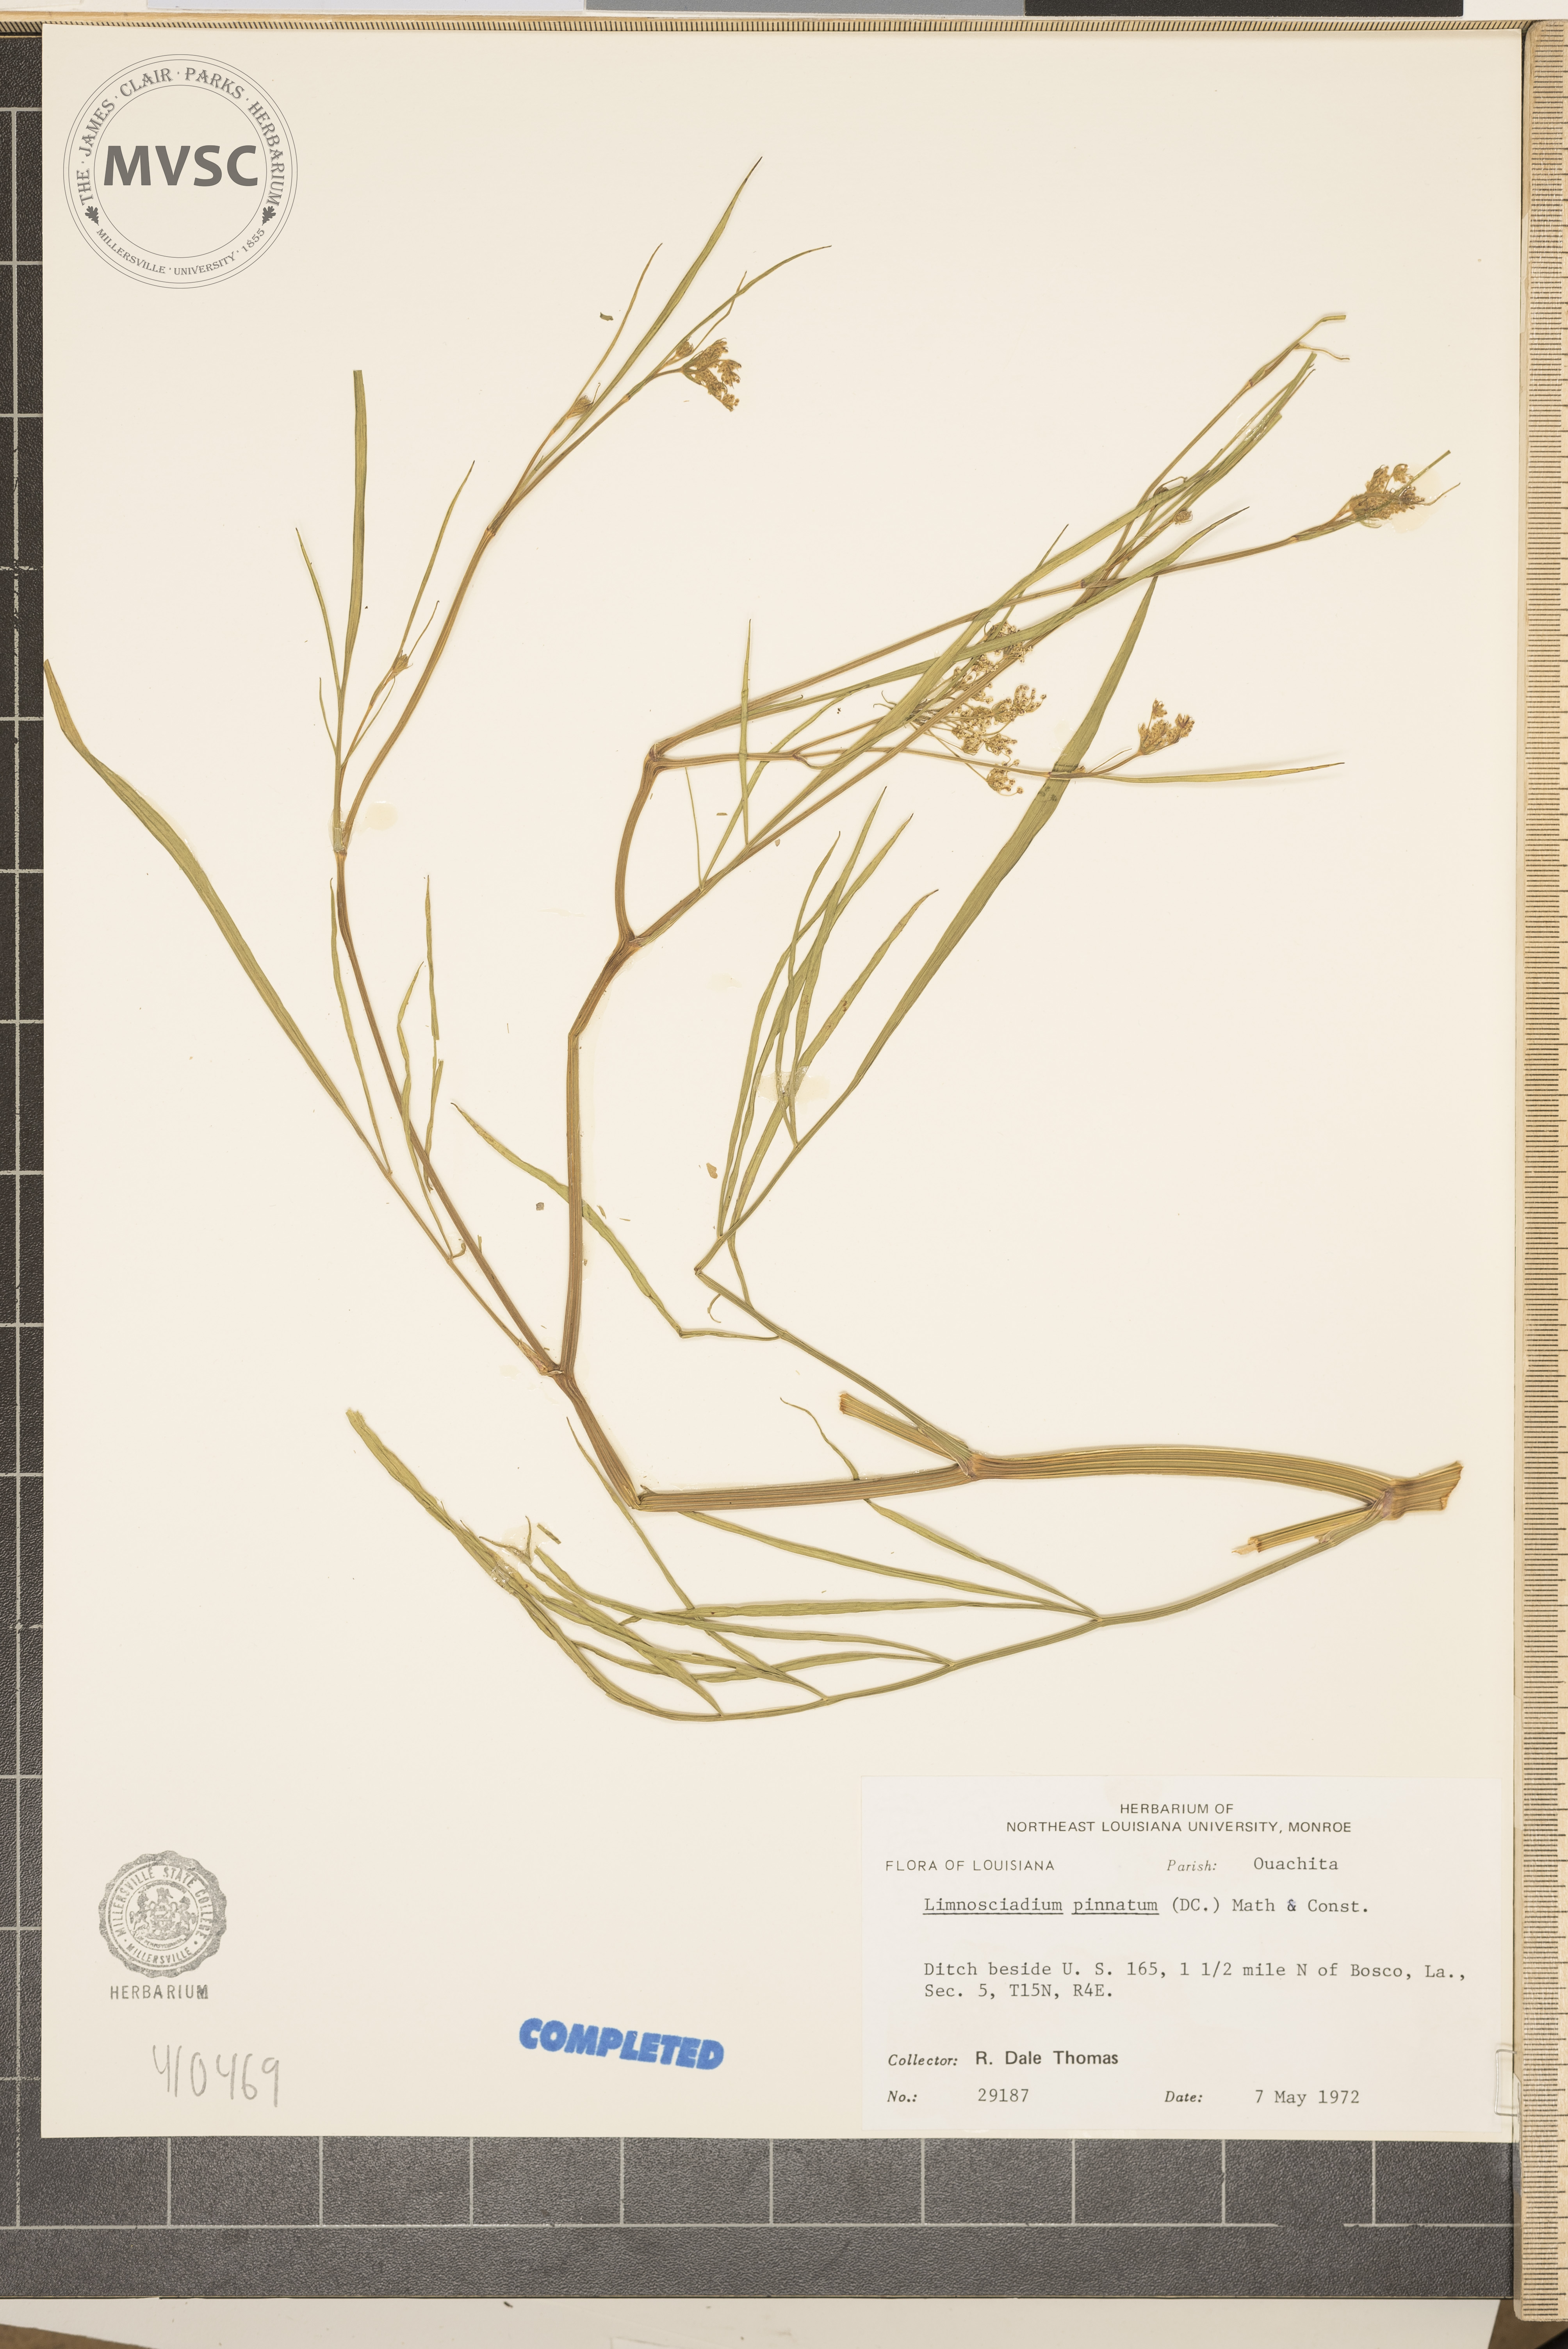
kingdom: Plantae
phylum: Tracheophyta
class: Magnoliopsida
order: Apiales
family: Apiaceae
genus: Limnosciadium
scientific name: Limnosciadium pinnatum
